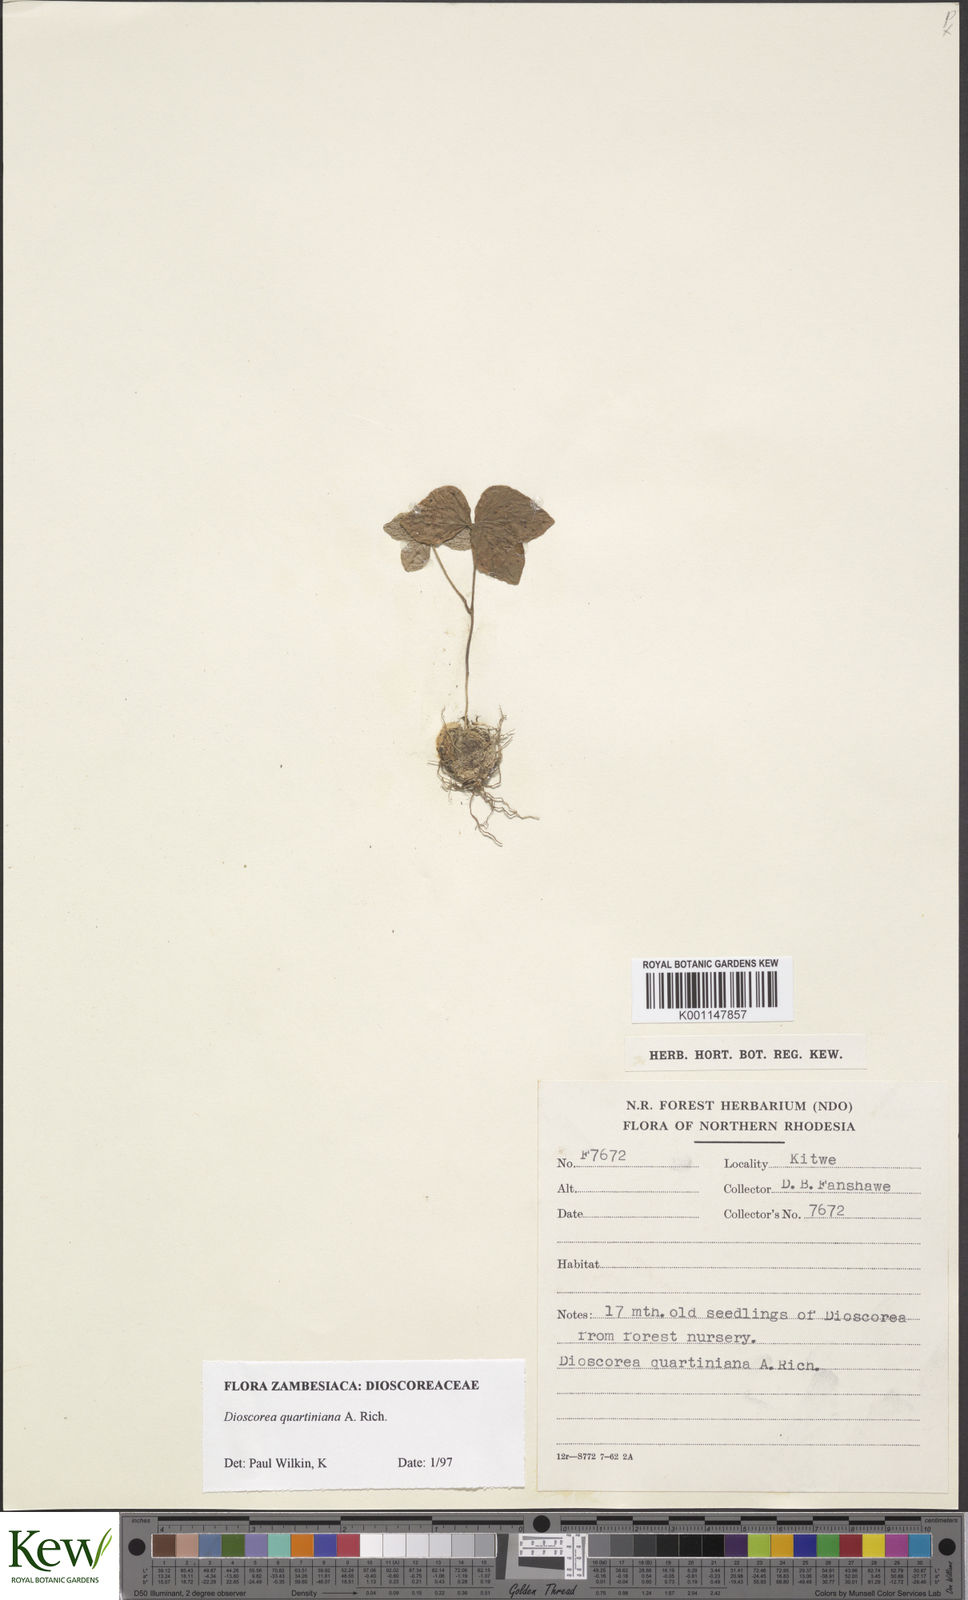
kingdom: Plantae
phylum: Tracheophyta
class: Liliopsida
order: Dioscoreales
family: Dioscoreaceae
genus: Dioscorea
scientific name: Dioscorea quartiniana
